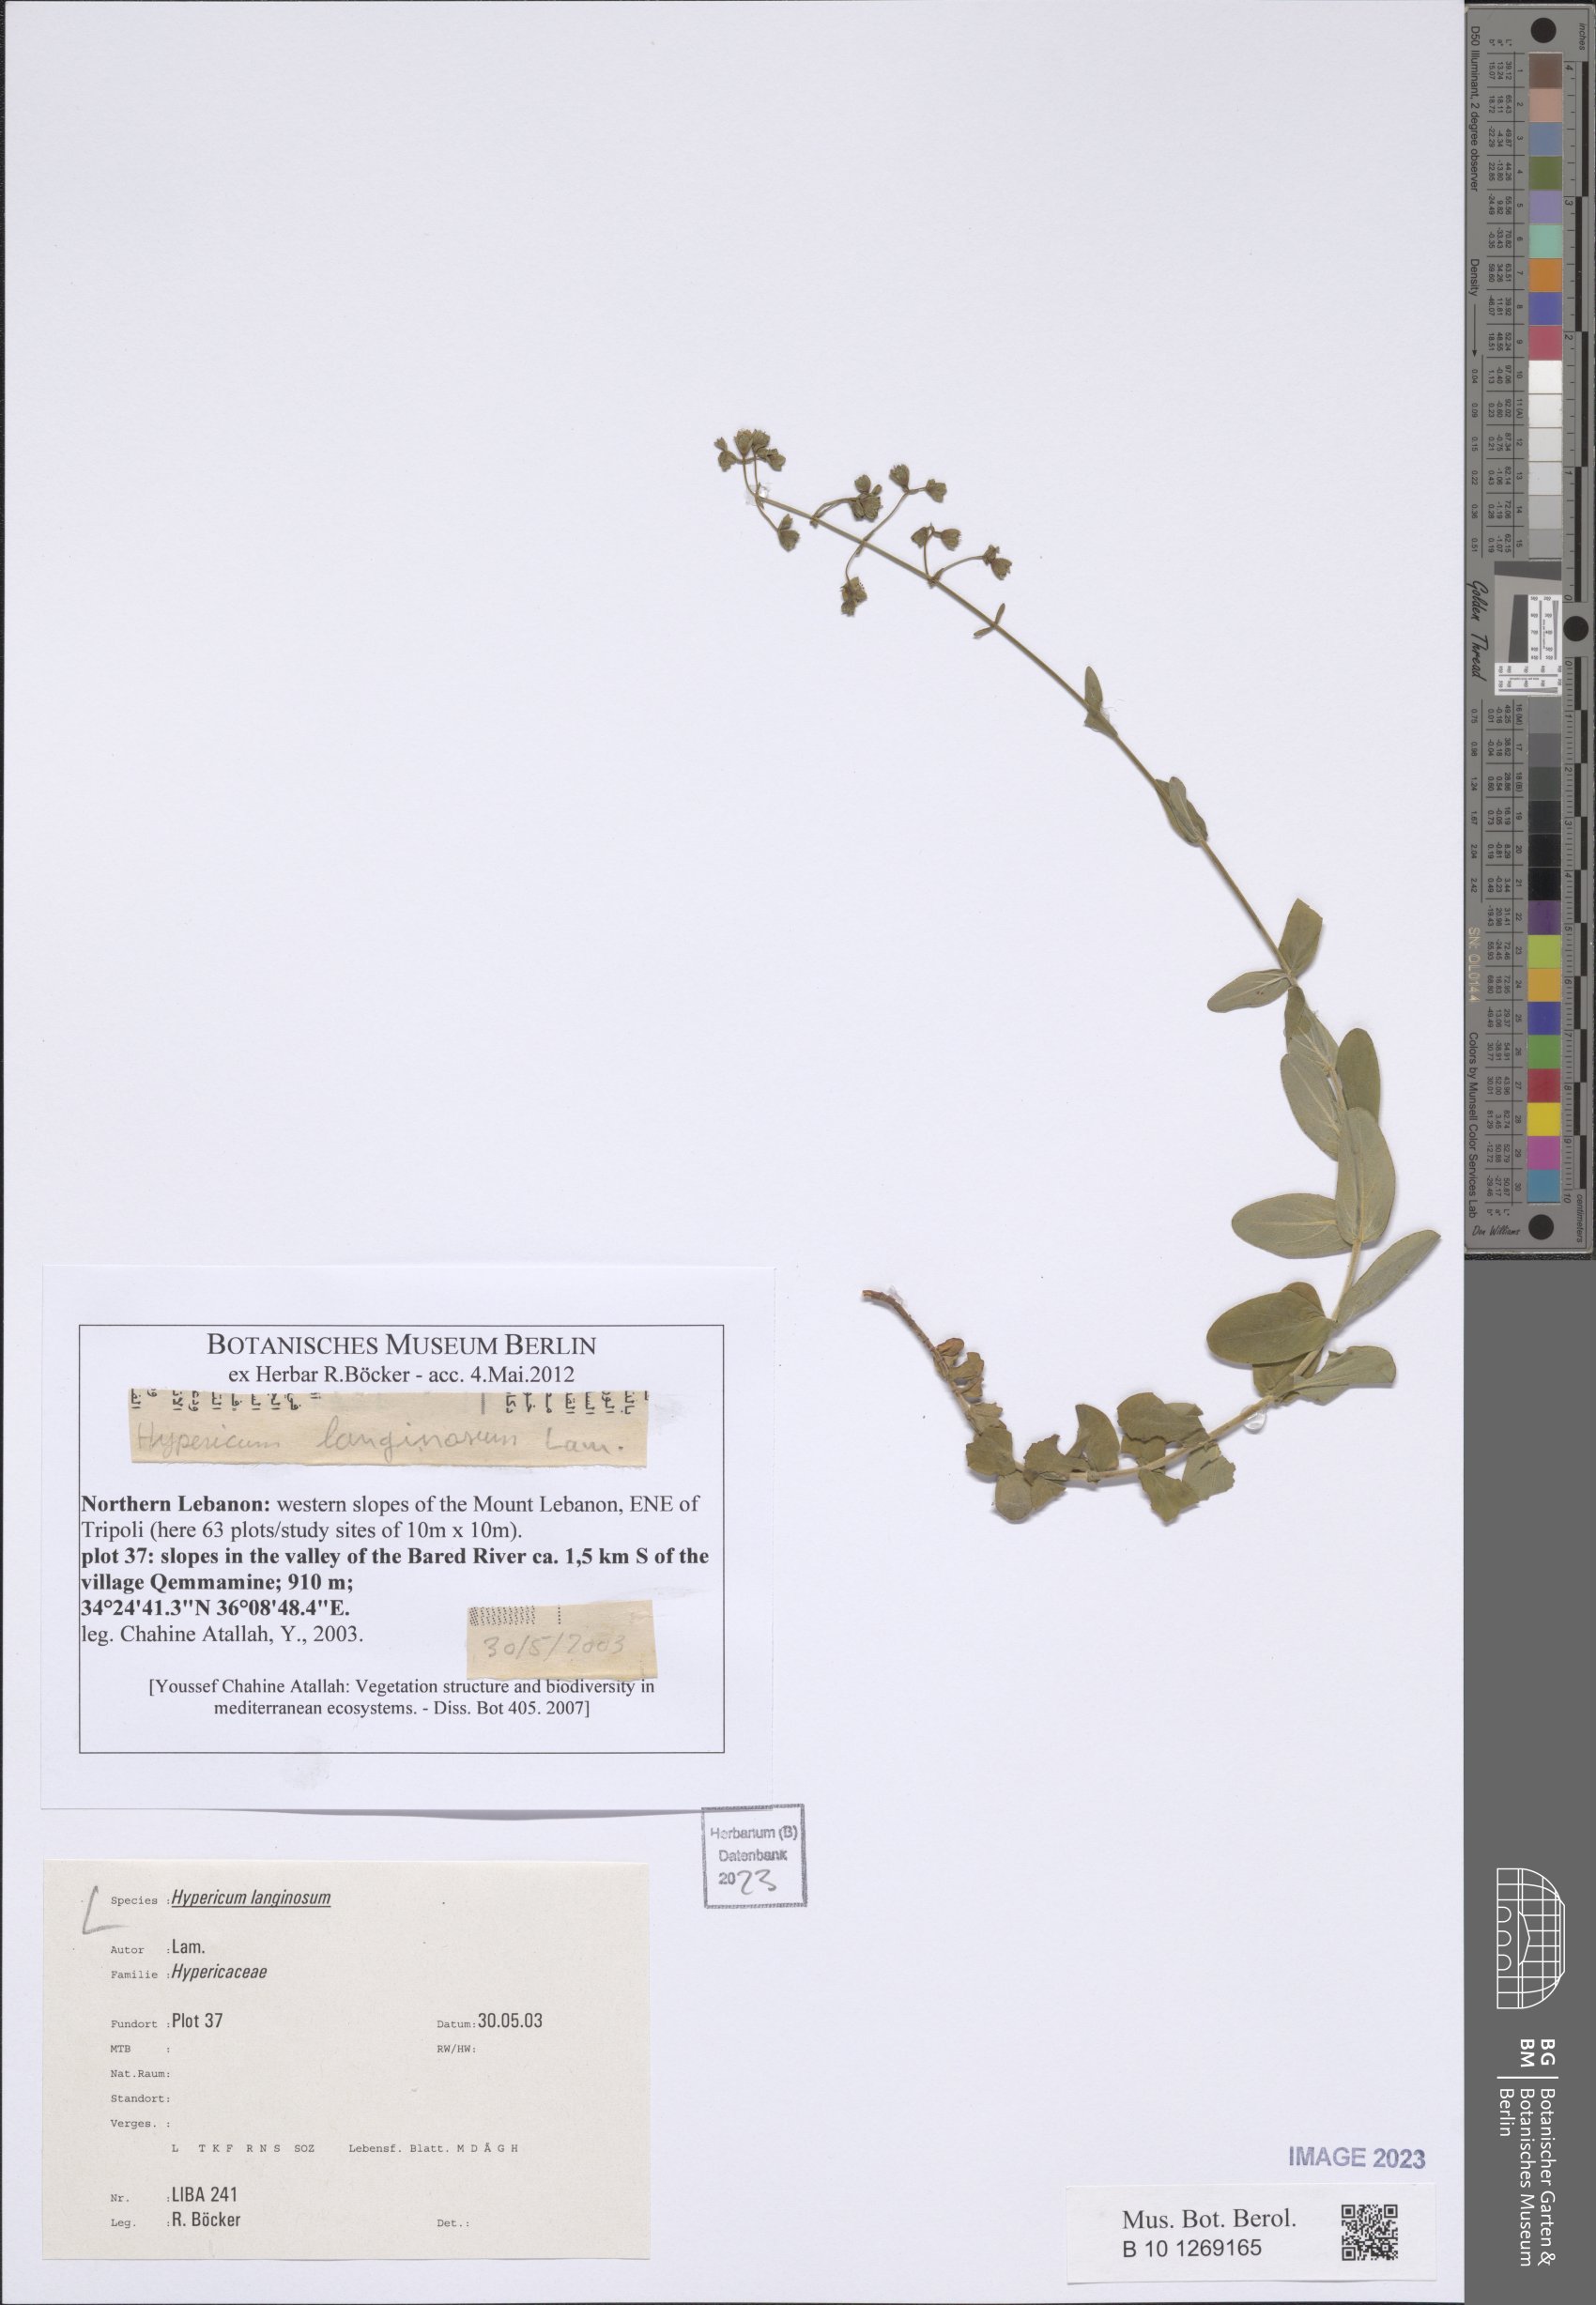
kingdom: Plantae
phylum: Tracheophyta
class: Magnoliopsida
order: Malpighiales
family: Hypericaceae
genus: Hypericum
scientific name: Hypericum lanuginosum
